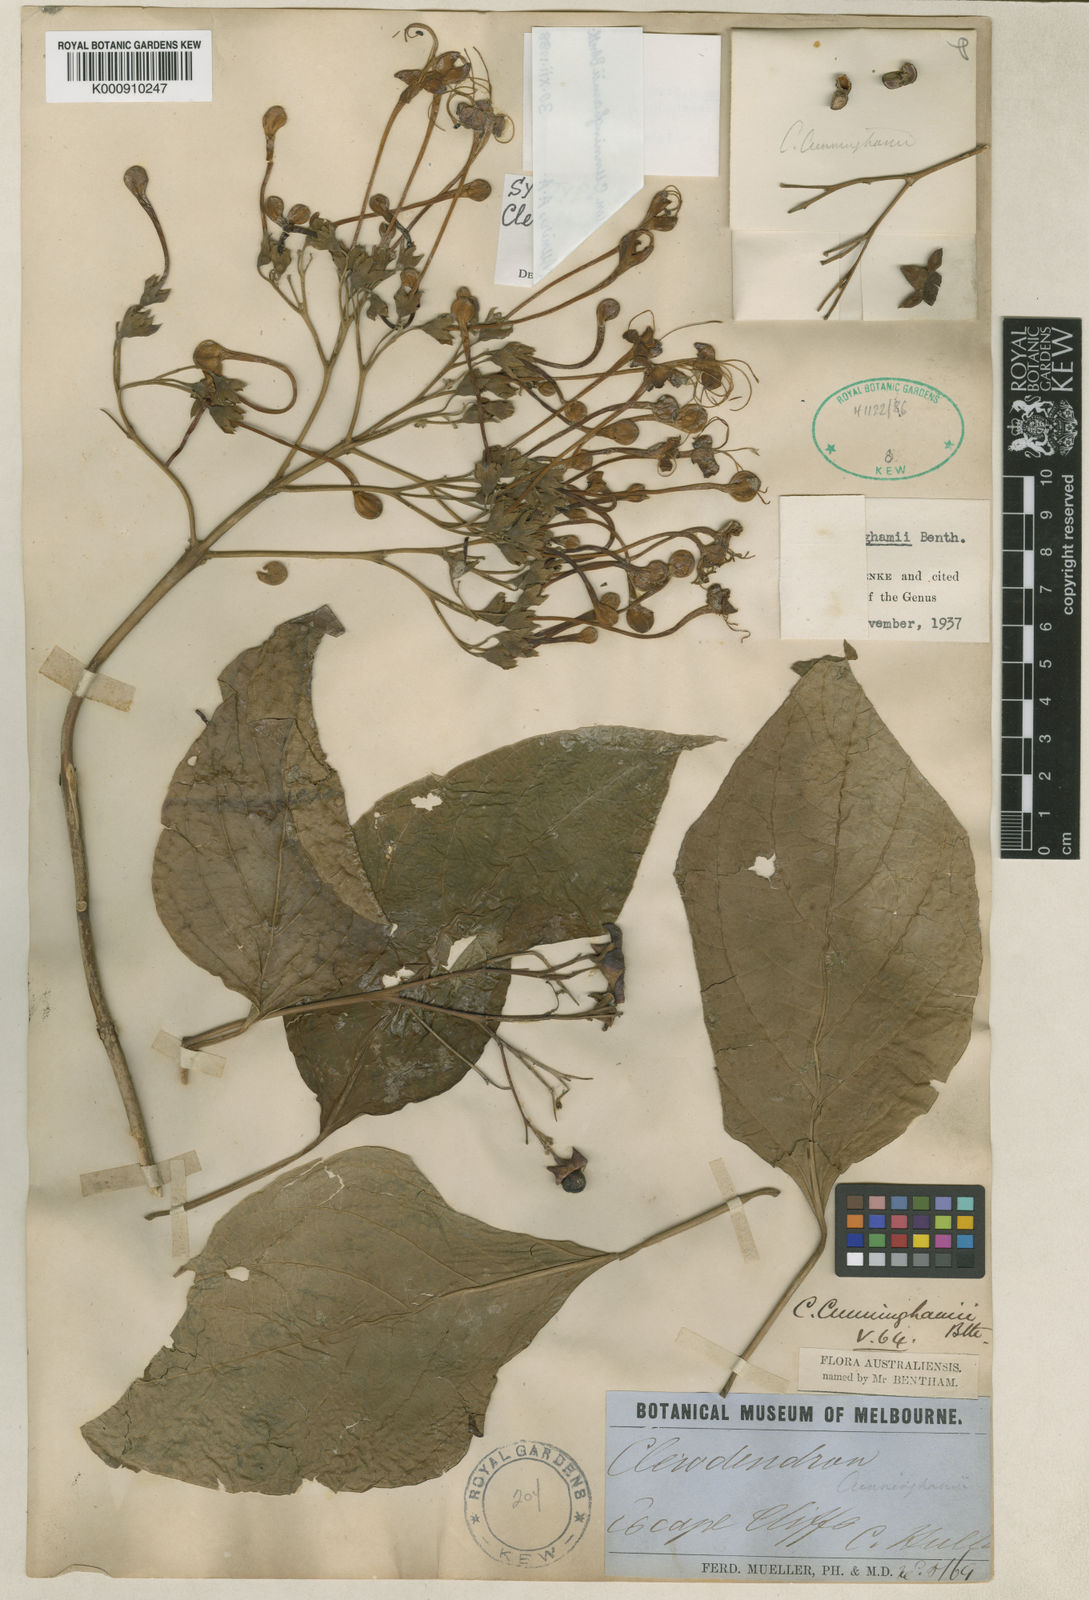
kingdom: Plantae
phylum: Tracheophyta
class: Magnoliopsida
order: Lamiales
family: Lamiaceae
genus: Clerodendrum
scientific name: Clerodendrum costatum
